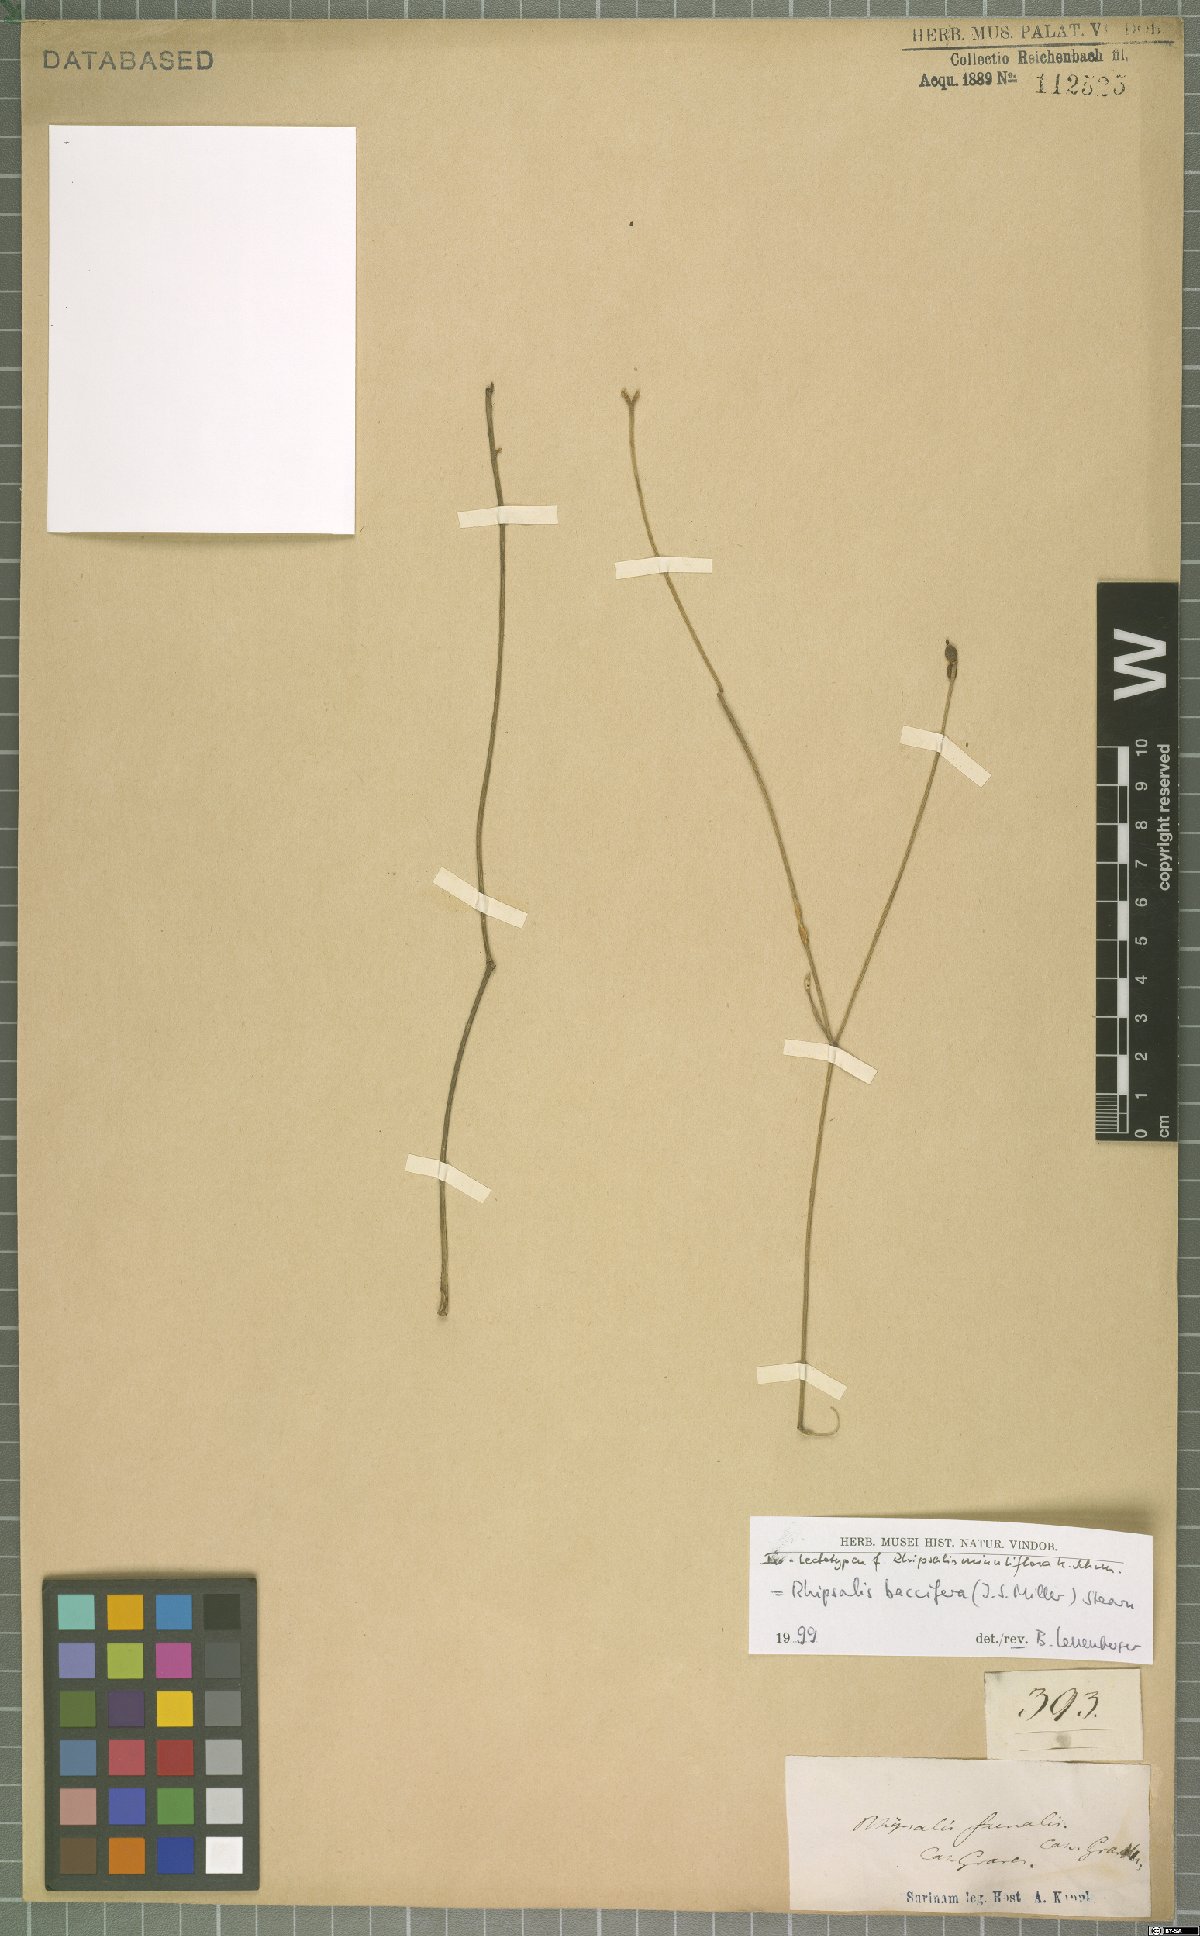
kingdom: Plantae
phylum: Tracheophyta
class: Magnoliopsida
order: Caryophyllales
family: Cactaceae
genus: Rhipsalis
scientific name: Rhipsalis baccifera
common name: Mistletoe cactus
